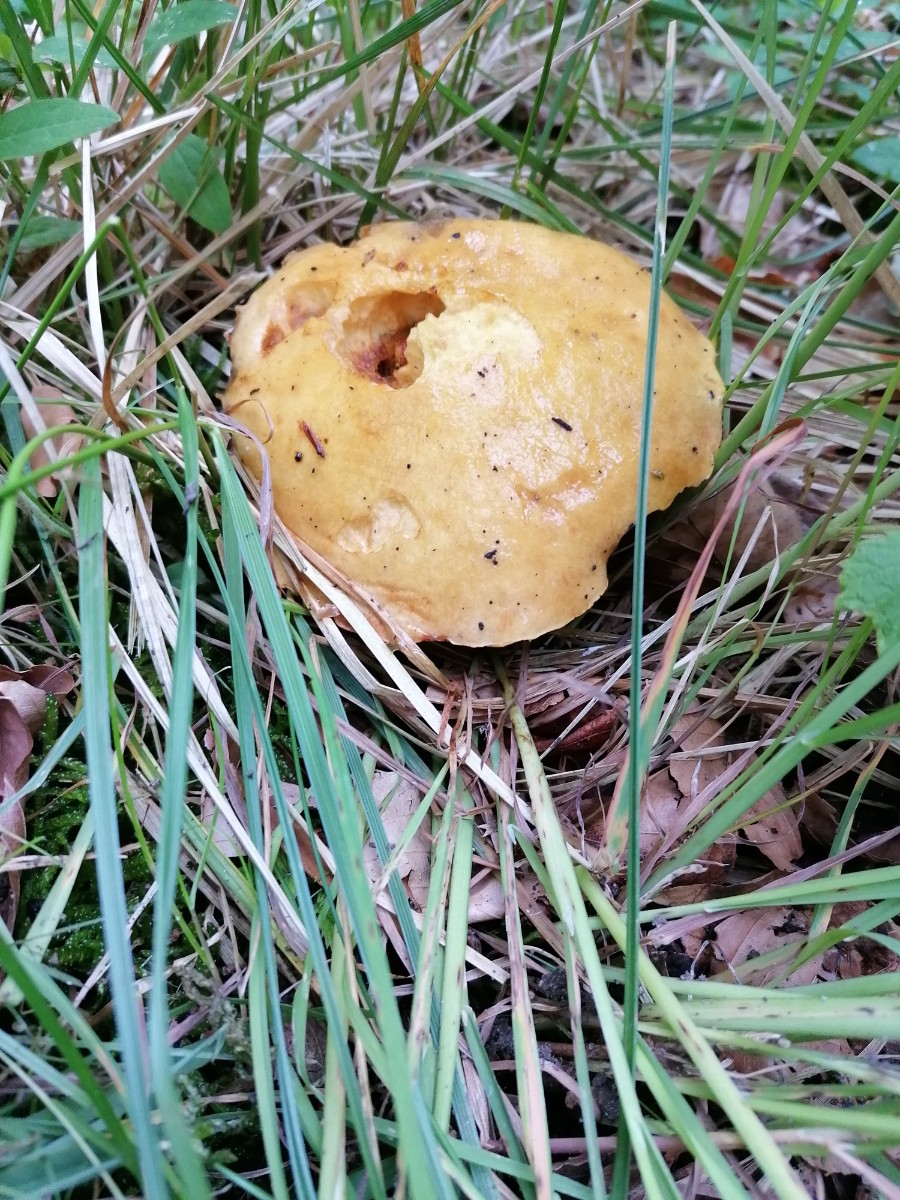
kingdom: Fungi
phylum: Basidiomycota
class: Agaricomycetes
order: Boletales
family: Suillaceae
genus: Suillus
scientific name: Suillus grevillei
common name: lærke-slimrørhat
